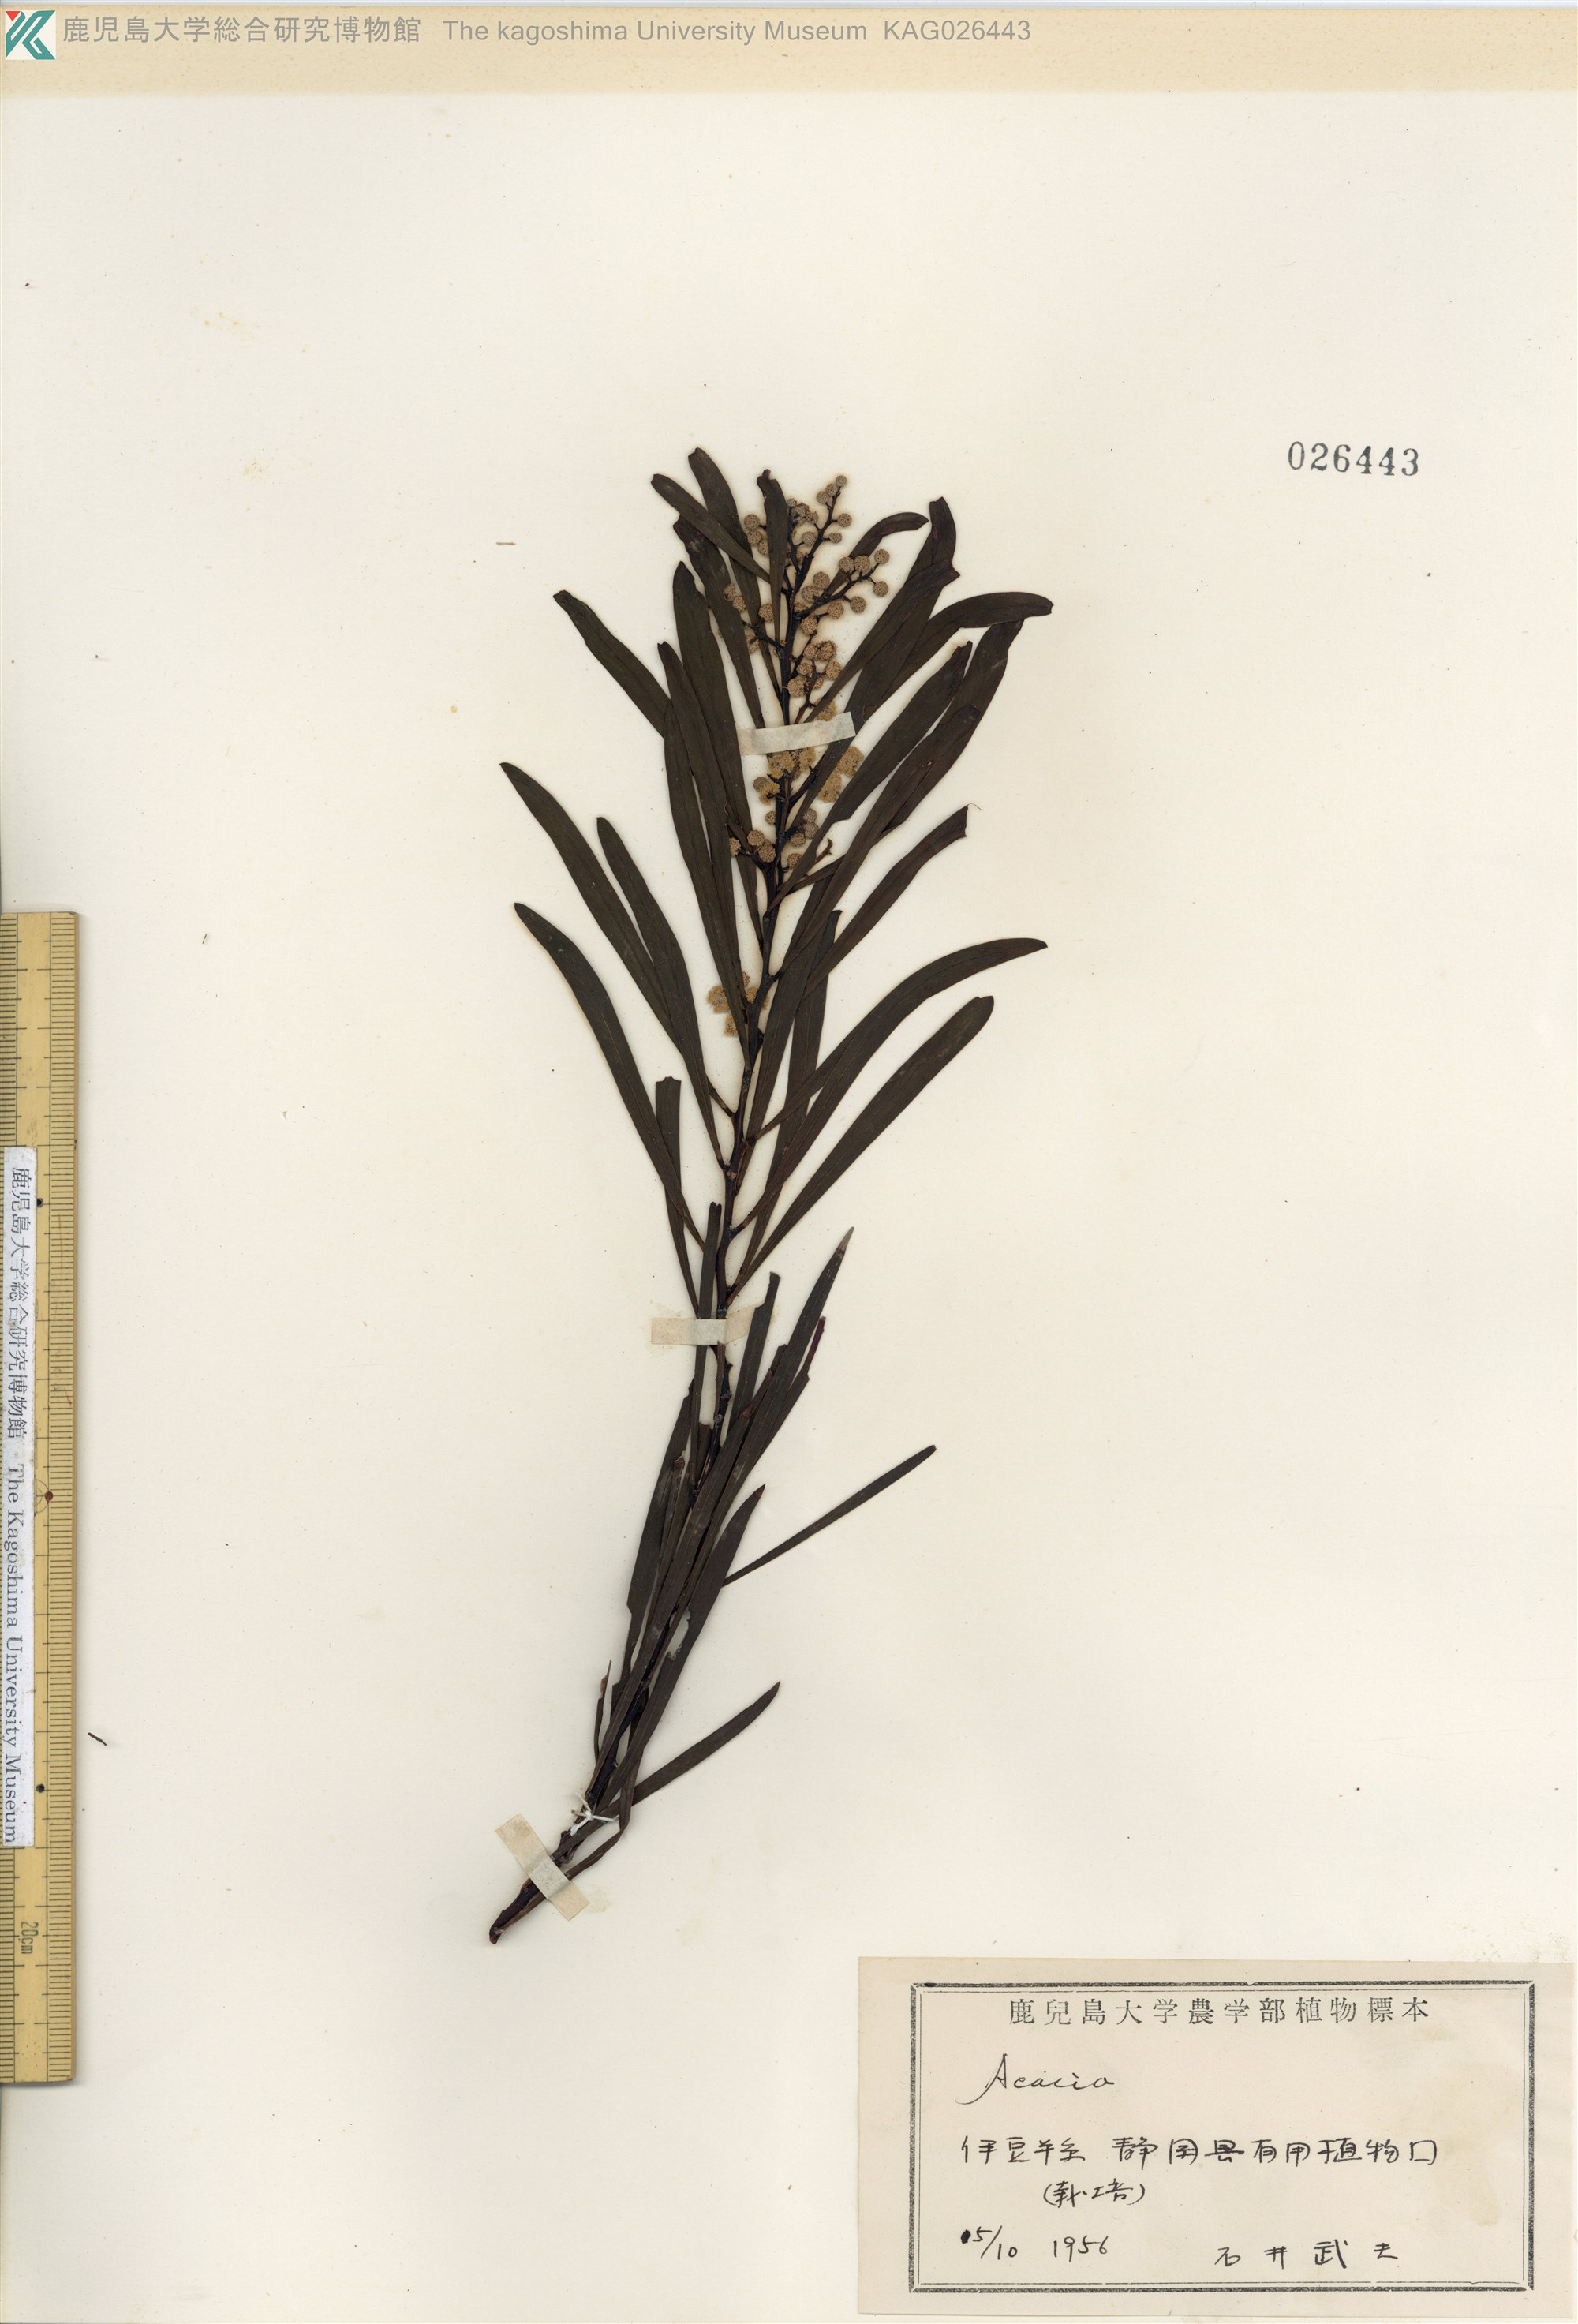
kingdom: Plantae
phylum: Tracheophyta
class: Magnoliopsida
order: Fabales
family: Fabaceae
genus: Acacia
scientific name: Acacia retinodes
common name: Silver wattle
